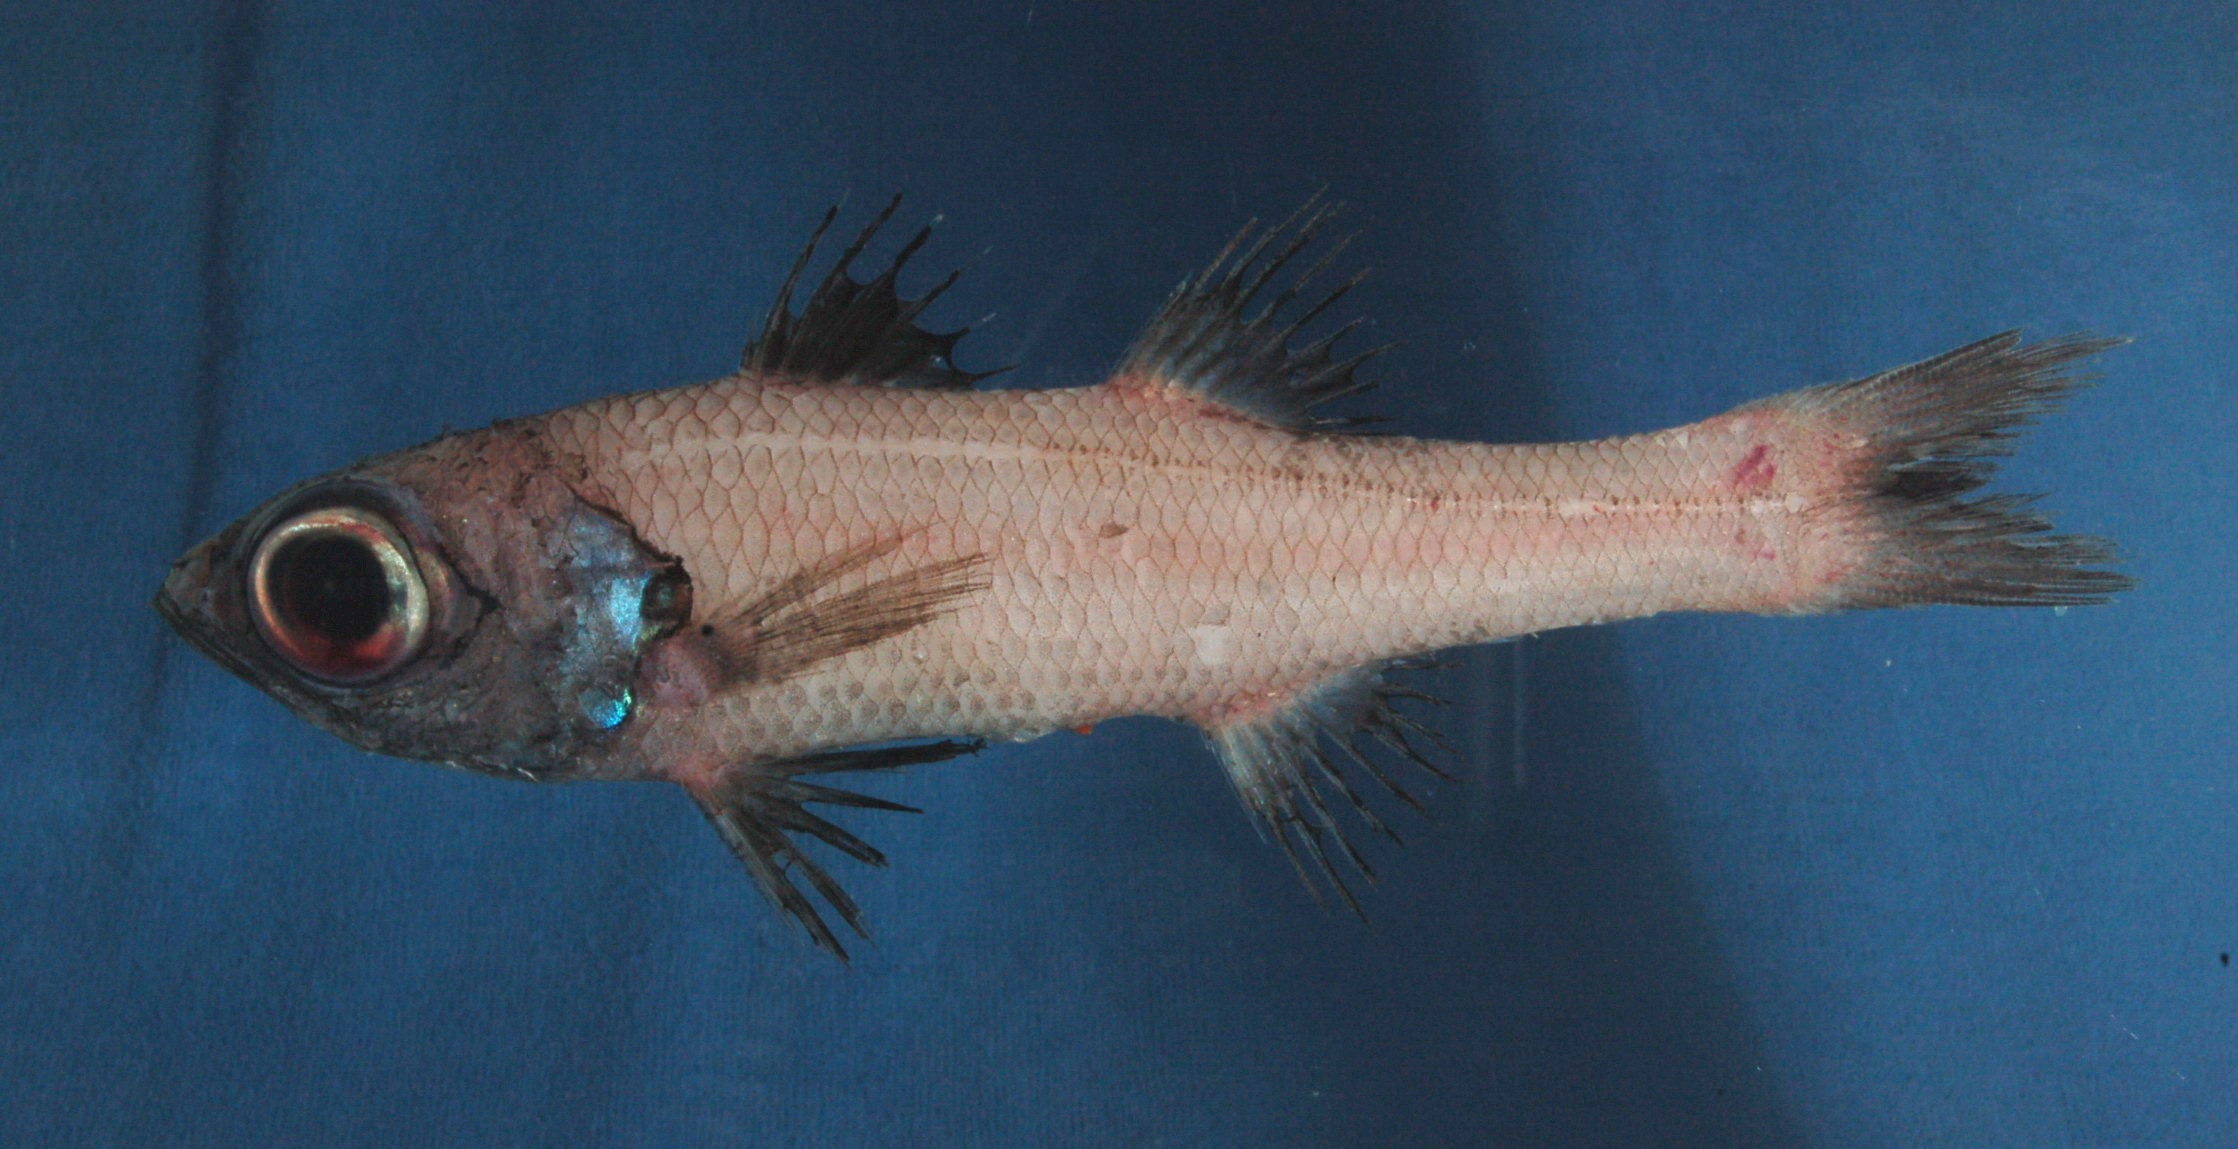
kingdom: Animalia
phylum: Chordata
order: Perciformes
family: Epigonidae
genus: Epigonus
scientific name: Epigonus idai
